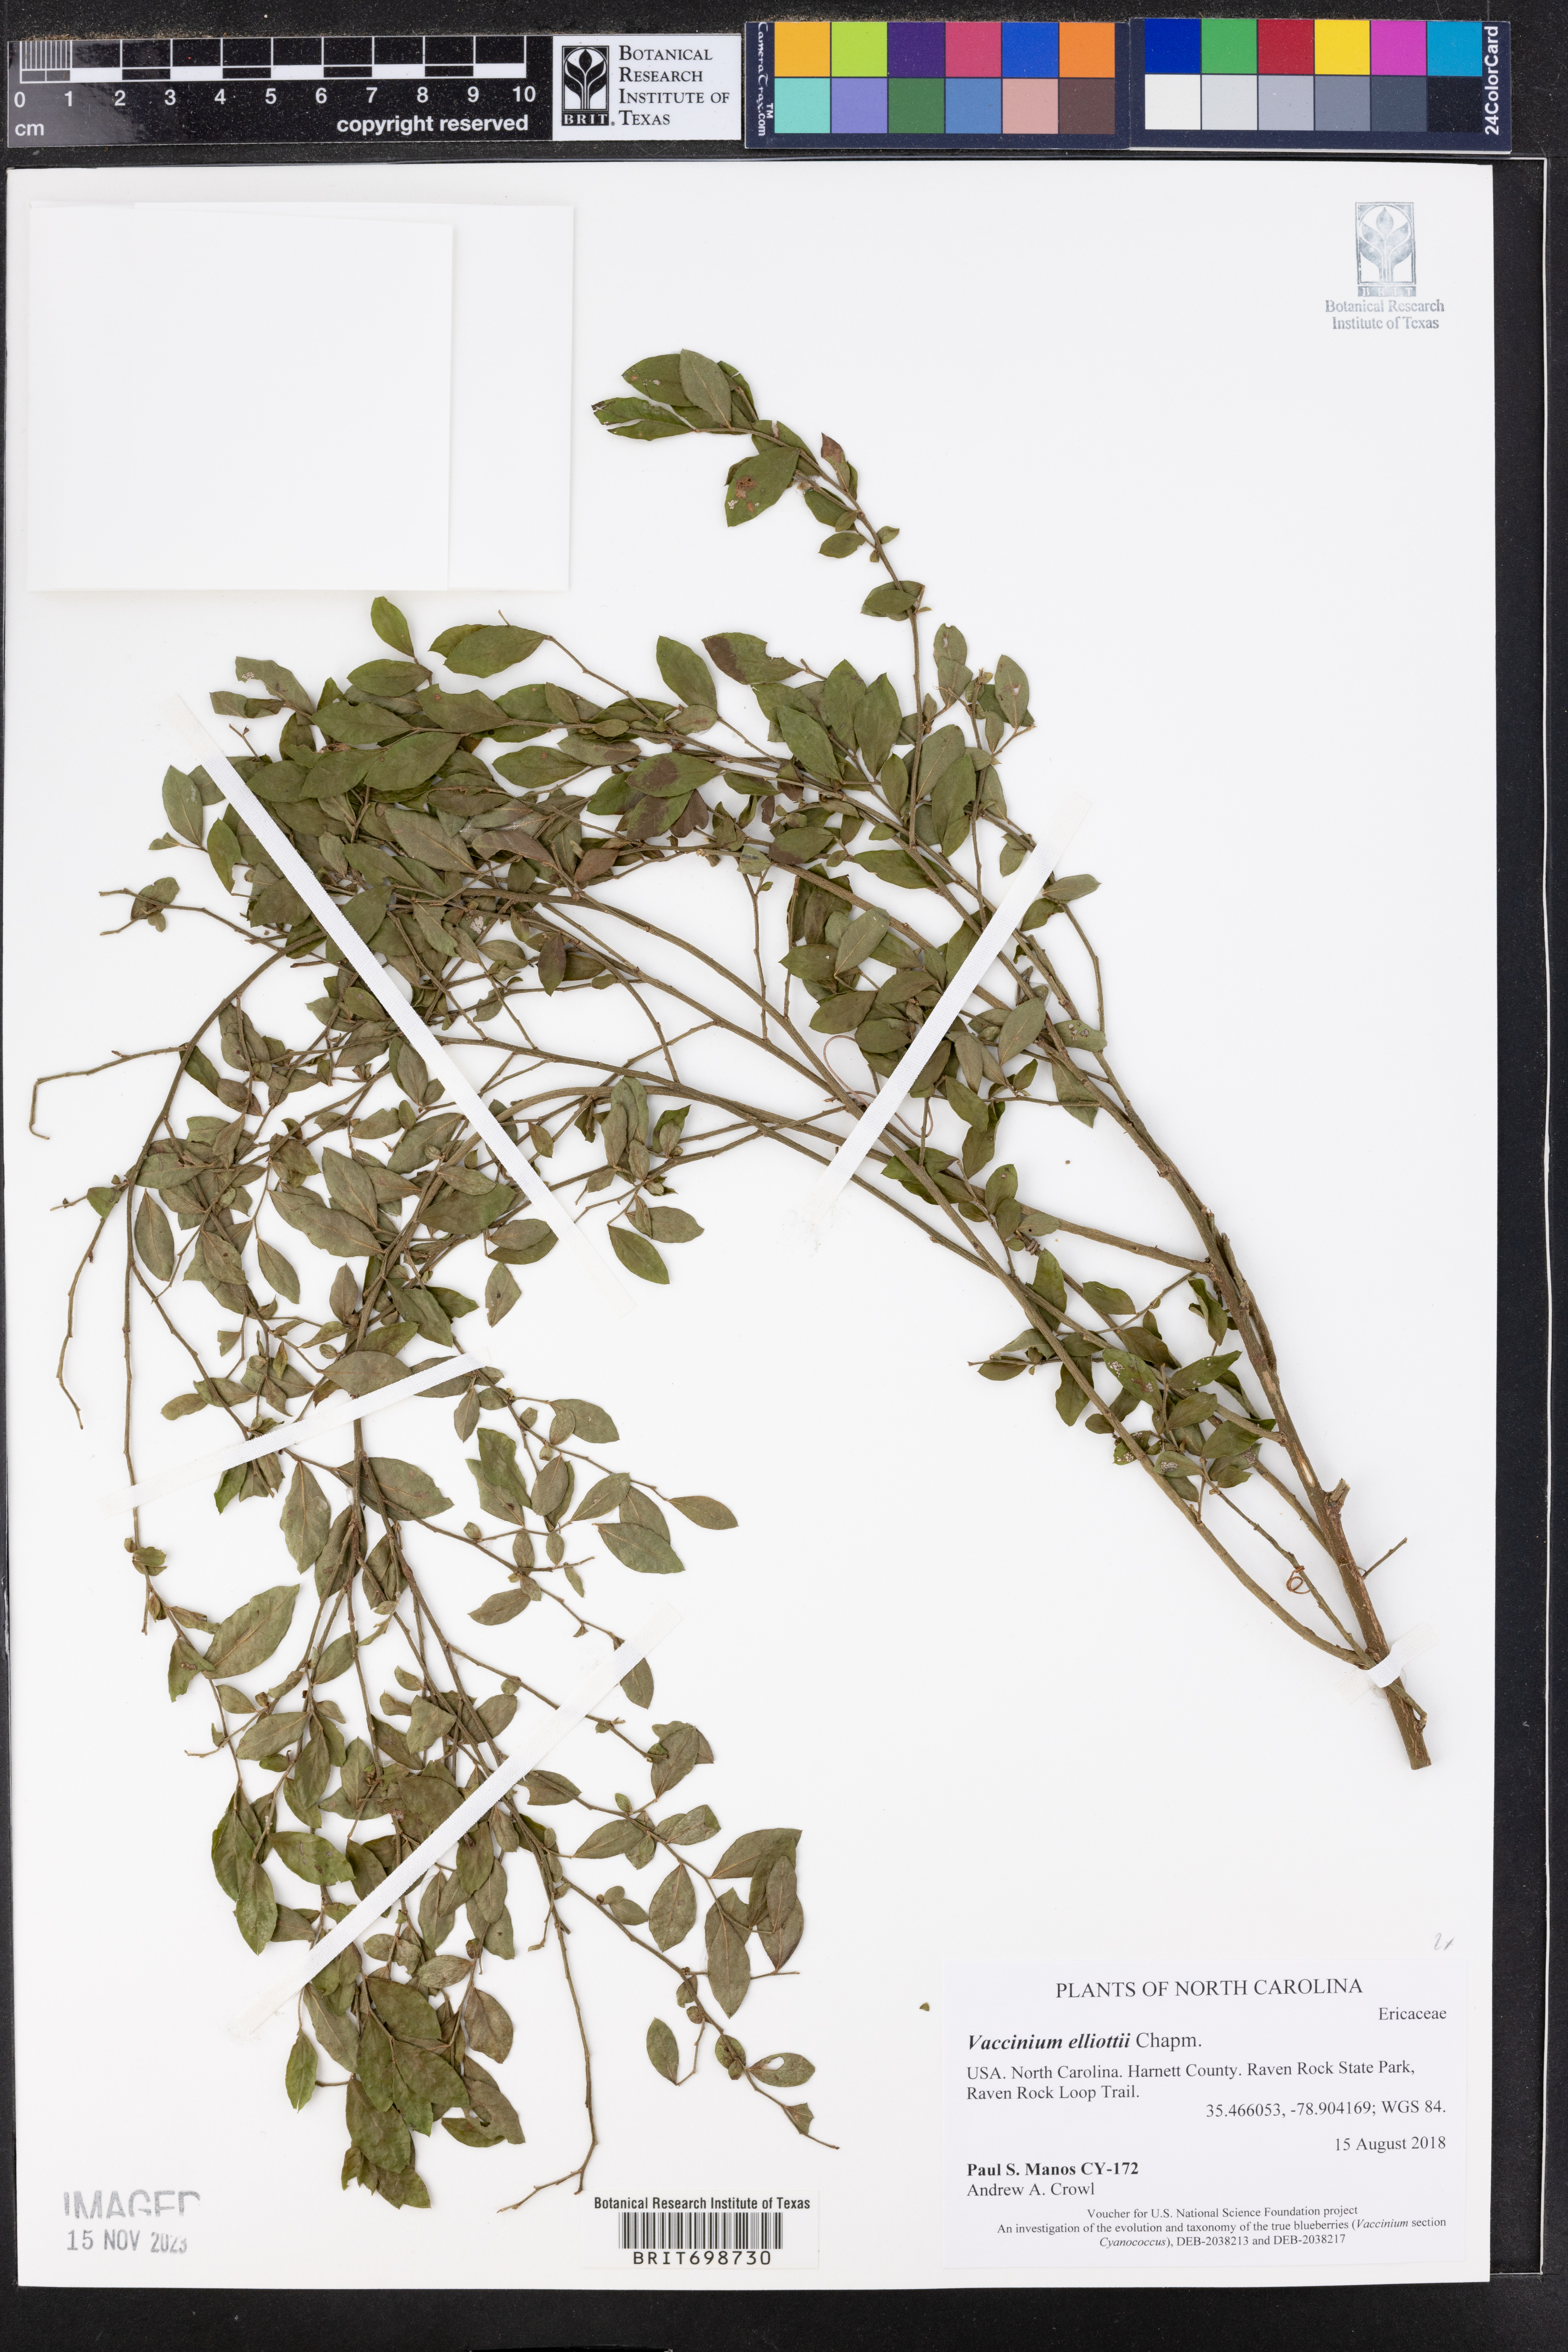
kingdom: Plantae
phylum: Tracheophyta
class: Magnoliopsida
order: Ericales
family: Ericaceae
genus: Vaccinium
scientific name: Vaccinium corymbosum
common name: Blueberry
